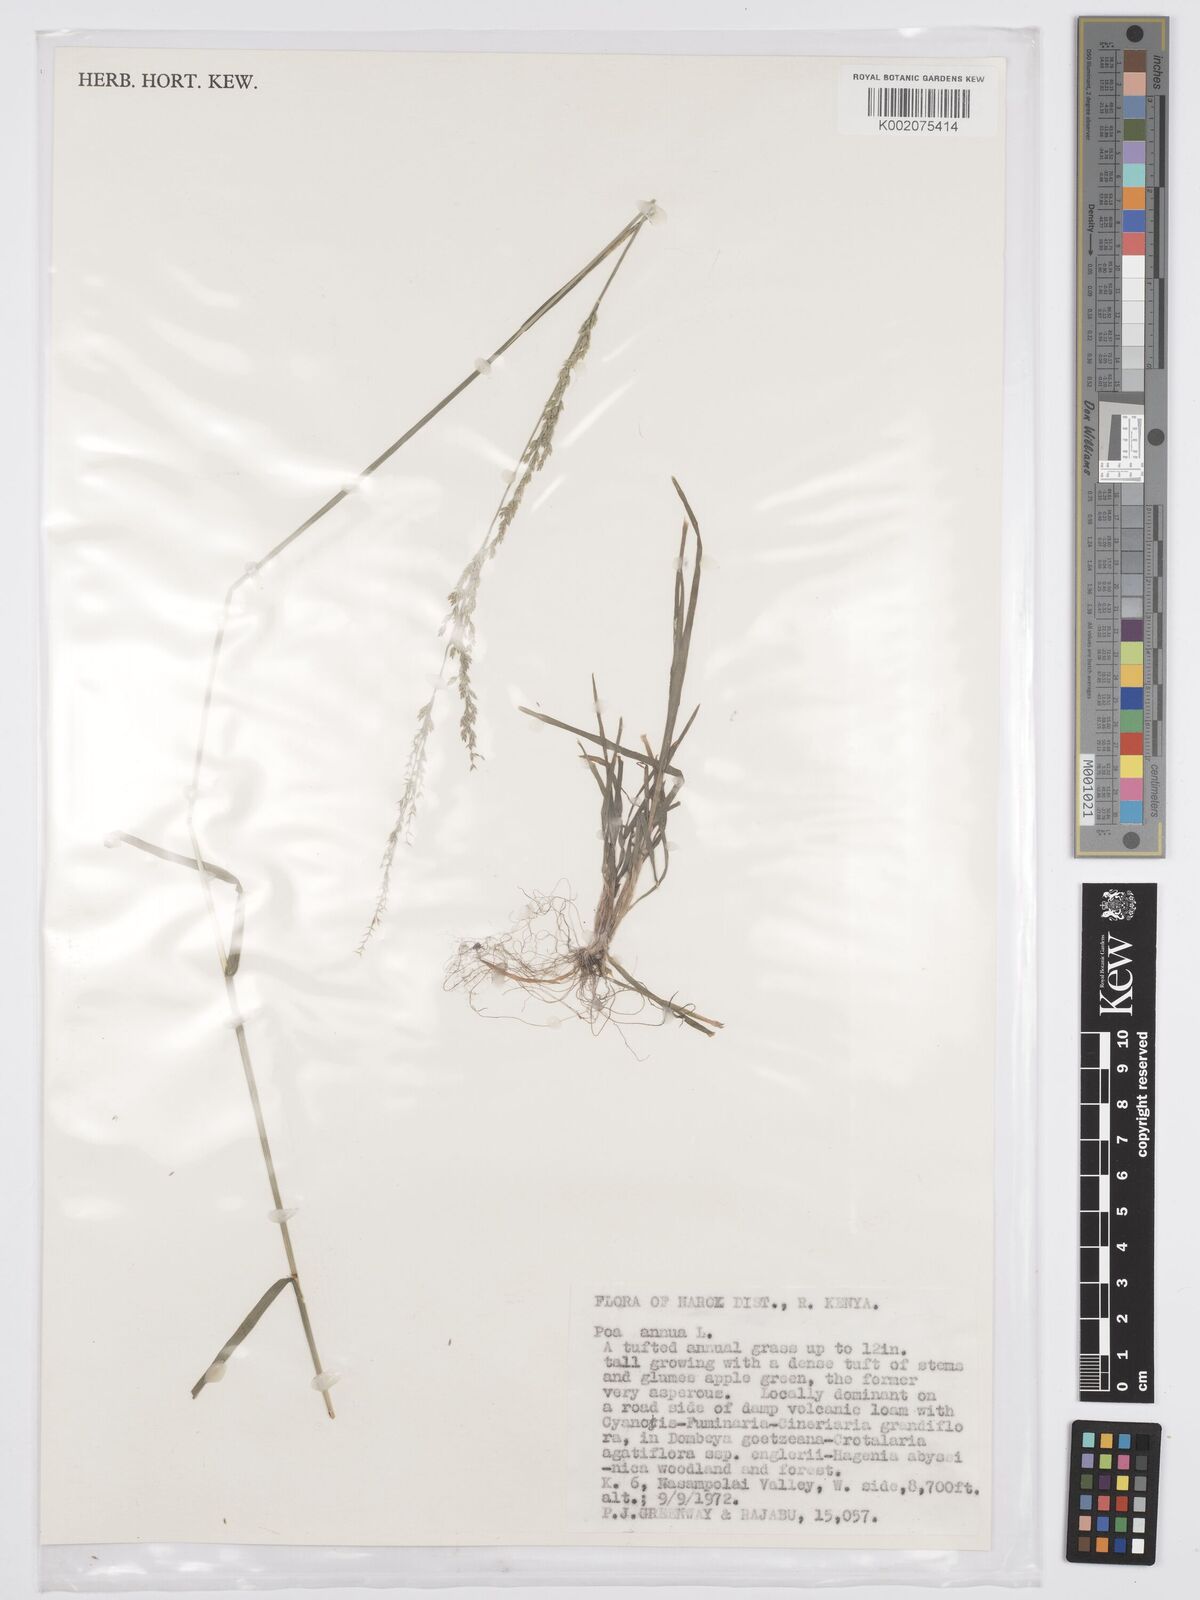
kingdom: Plantae
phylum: Tracheophyta
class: Liliopsida
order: Poales
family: Poaceae
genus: Poa
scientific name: Poa annua
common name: Annual bluegrass
